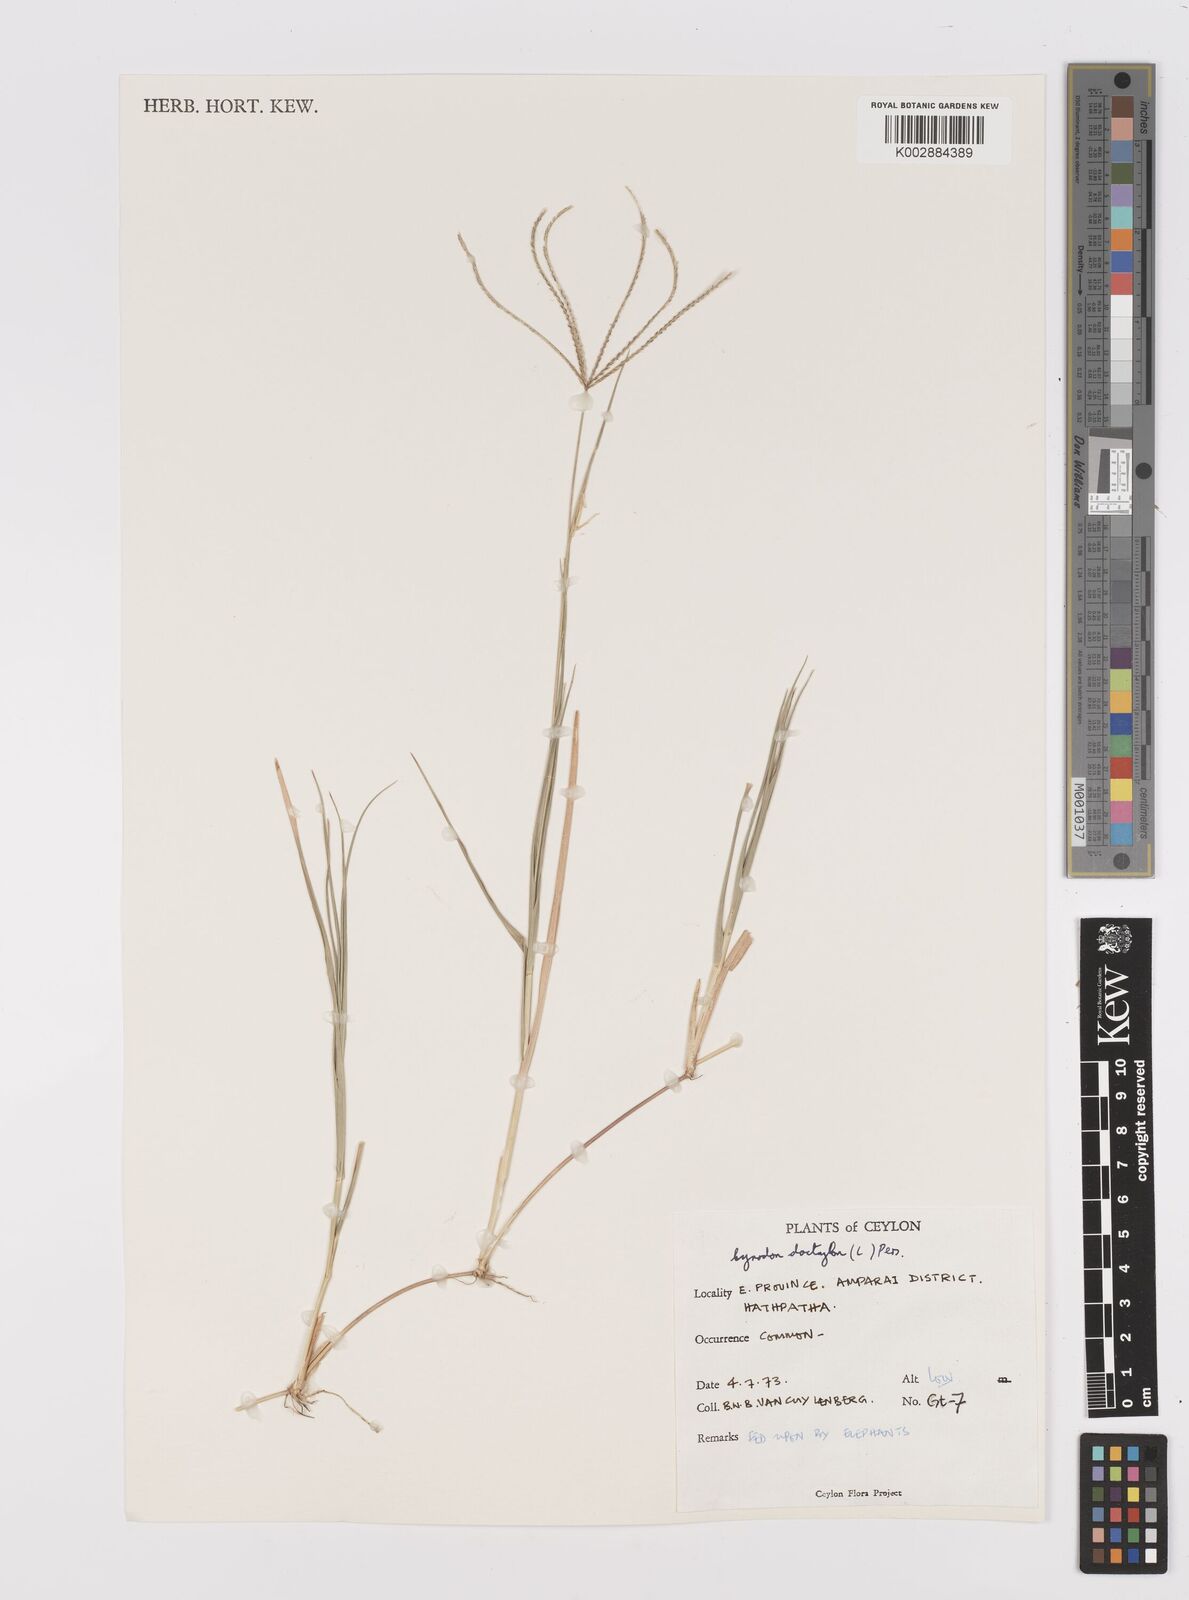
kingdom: Plantae
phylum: Tracheophyta
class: Liliopsida
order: Poales
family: Poaceae
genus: Cynodon
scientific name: Cynodon dactylon
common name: Bermuda grass
